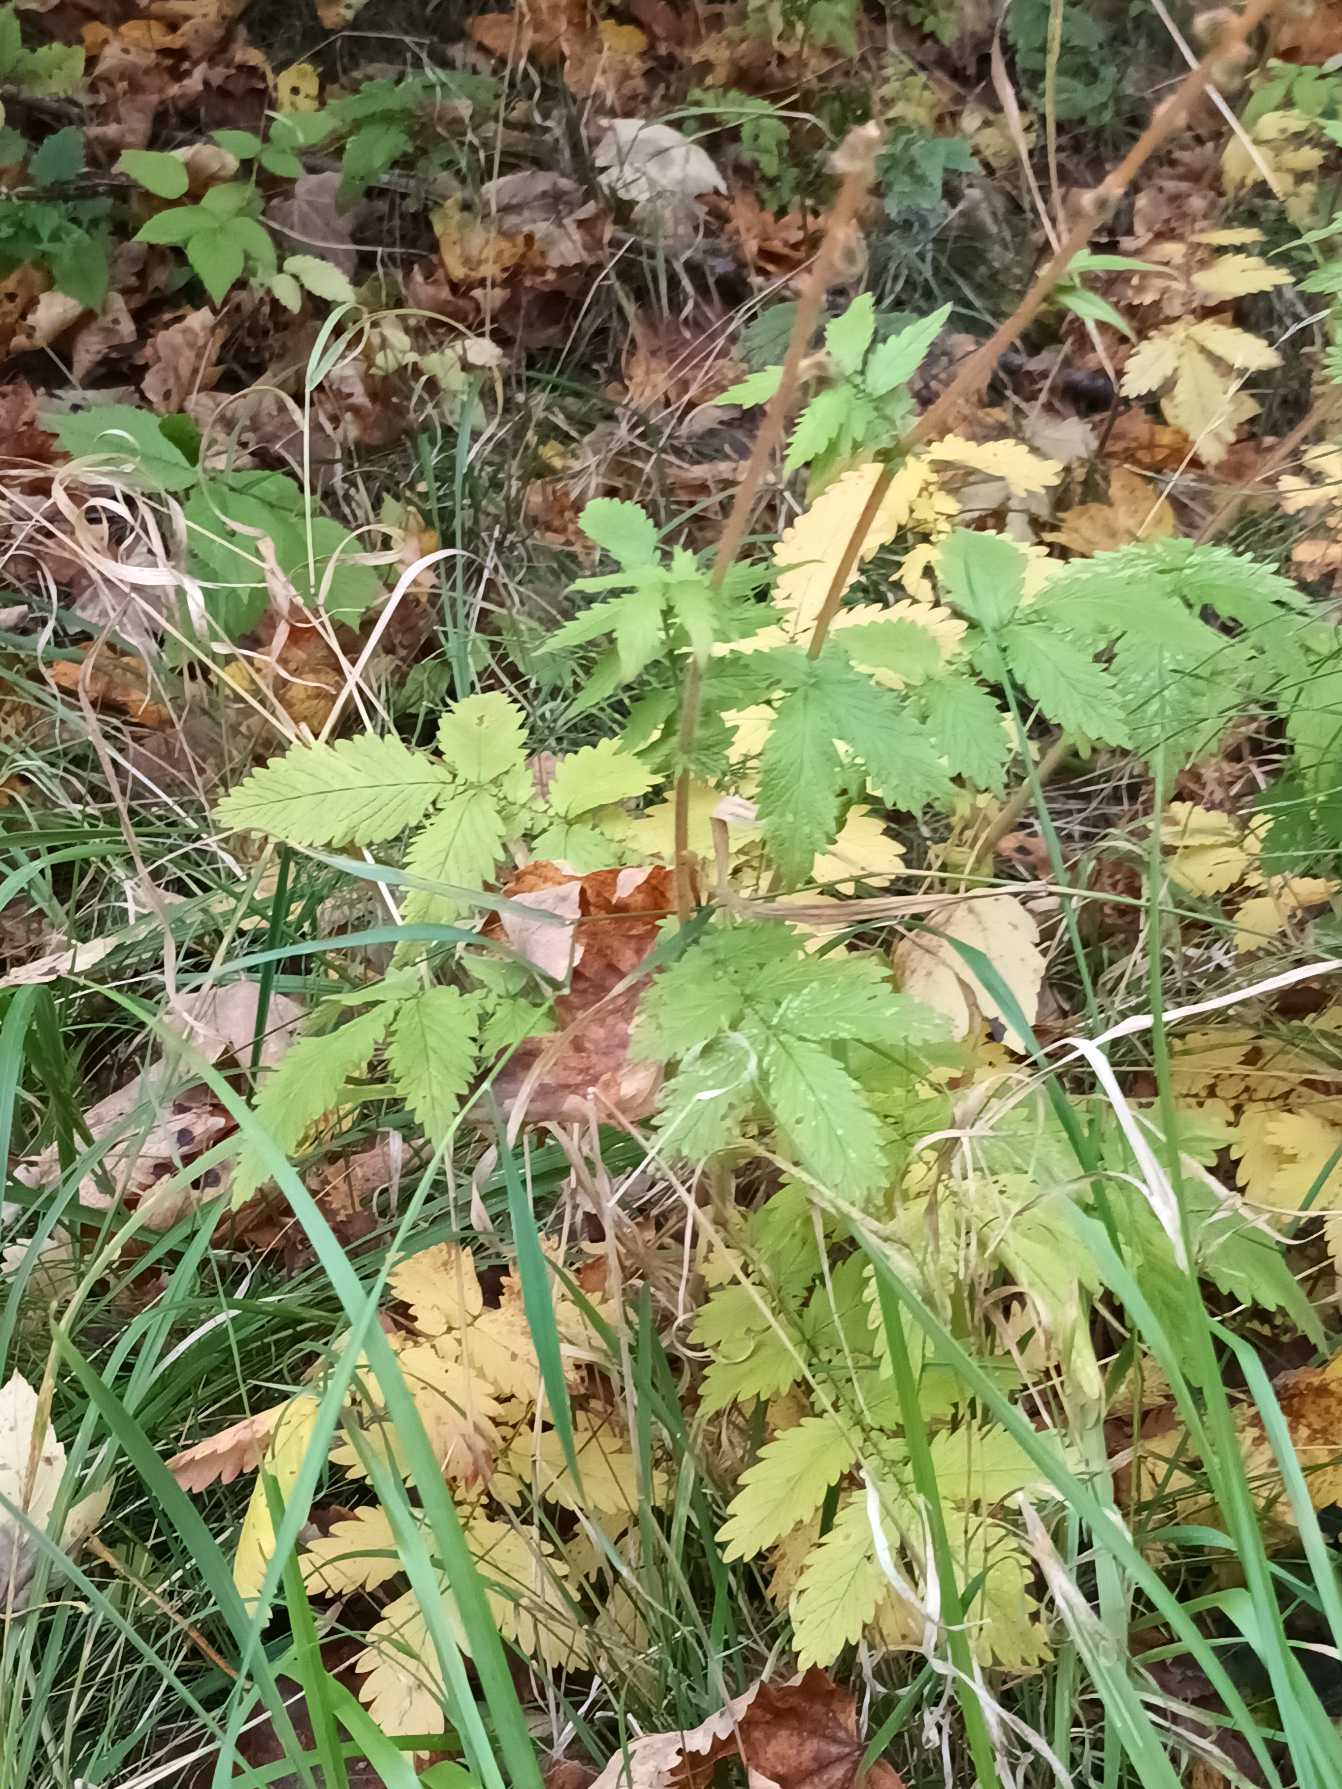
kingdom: Plantae
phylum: Tracheophyta
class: Magnoliopsida
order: Rosales
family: Rosaceae
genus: Agrimonia
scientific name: Agrimonia eupatoria
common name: Almindelig agermåne
